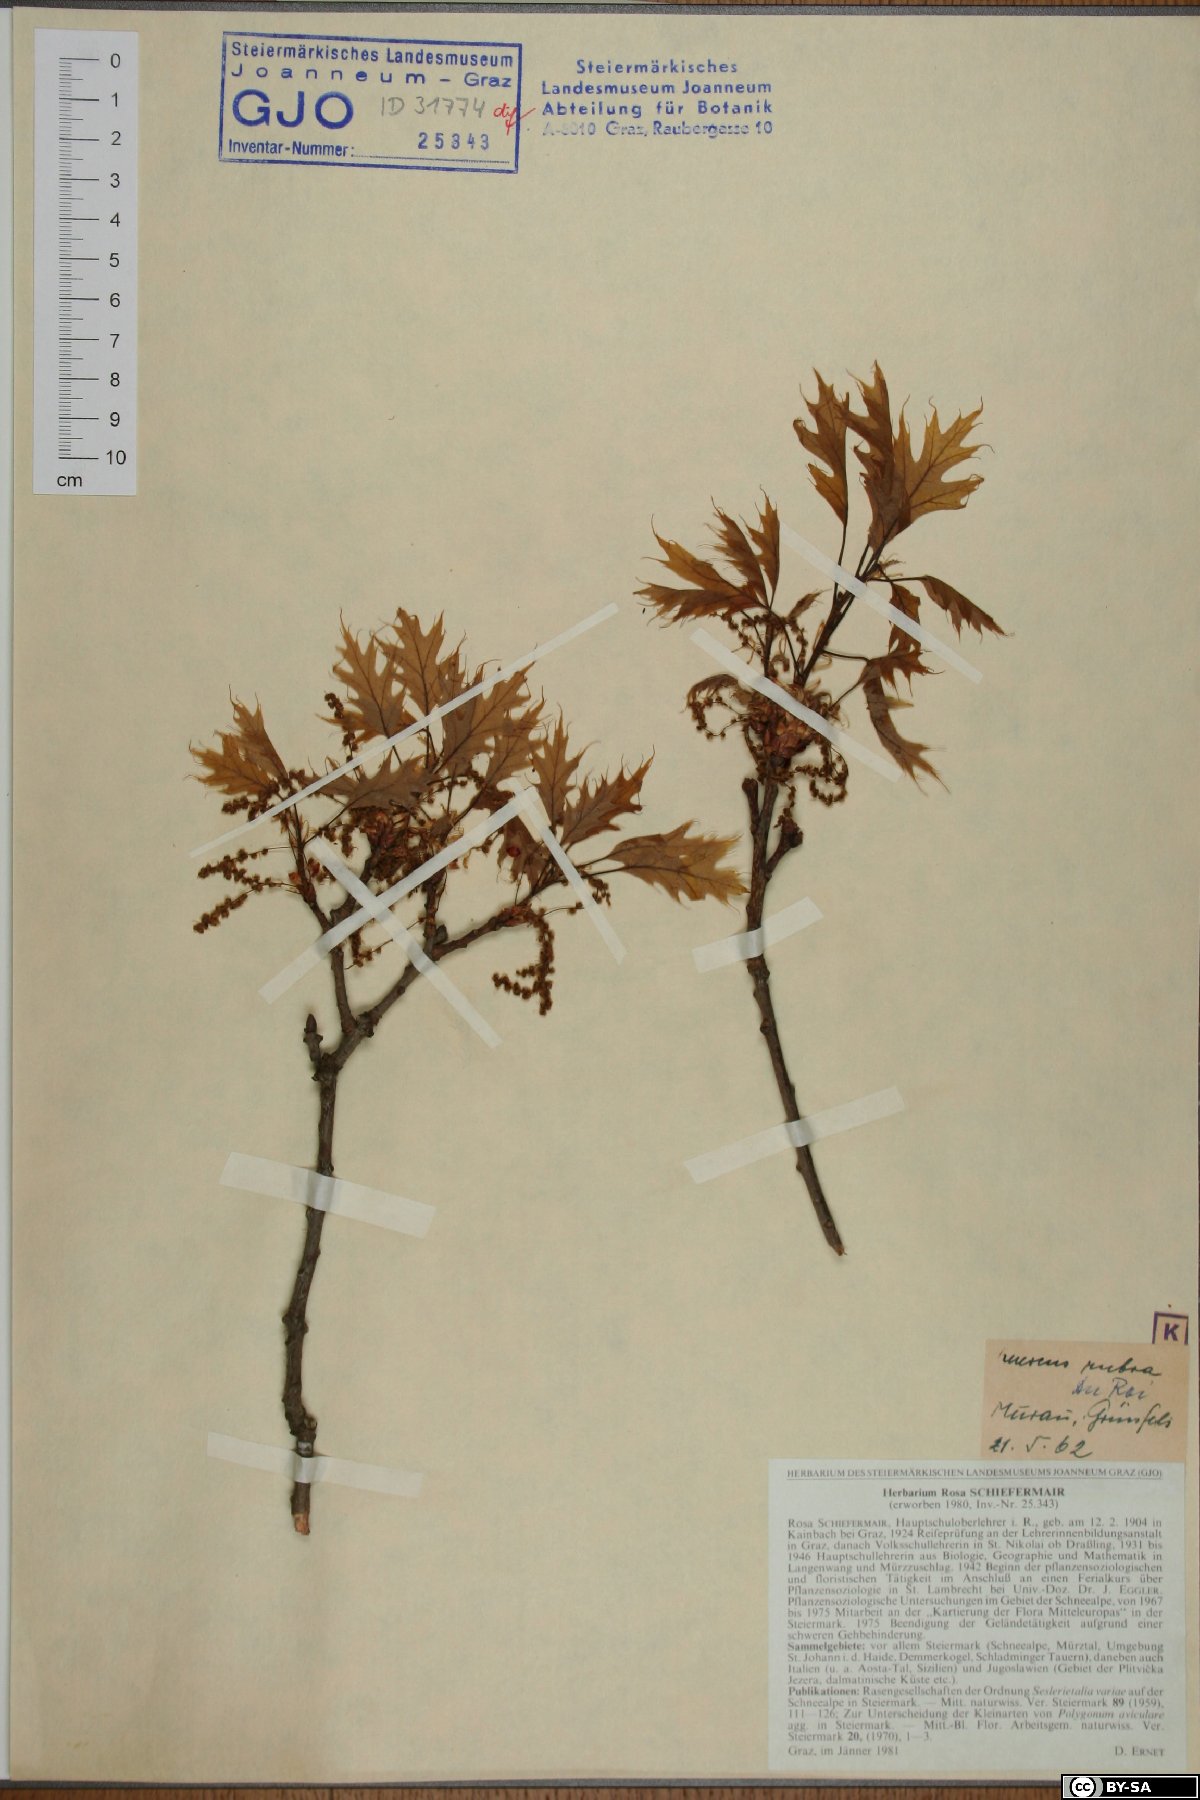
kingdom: Plantae
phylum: Tracheophyta
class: Magnoliopsida
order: Fagales
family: Fagaceae
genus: Quercus
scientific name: Quercus rubra
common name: Red oak
